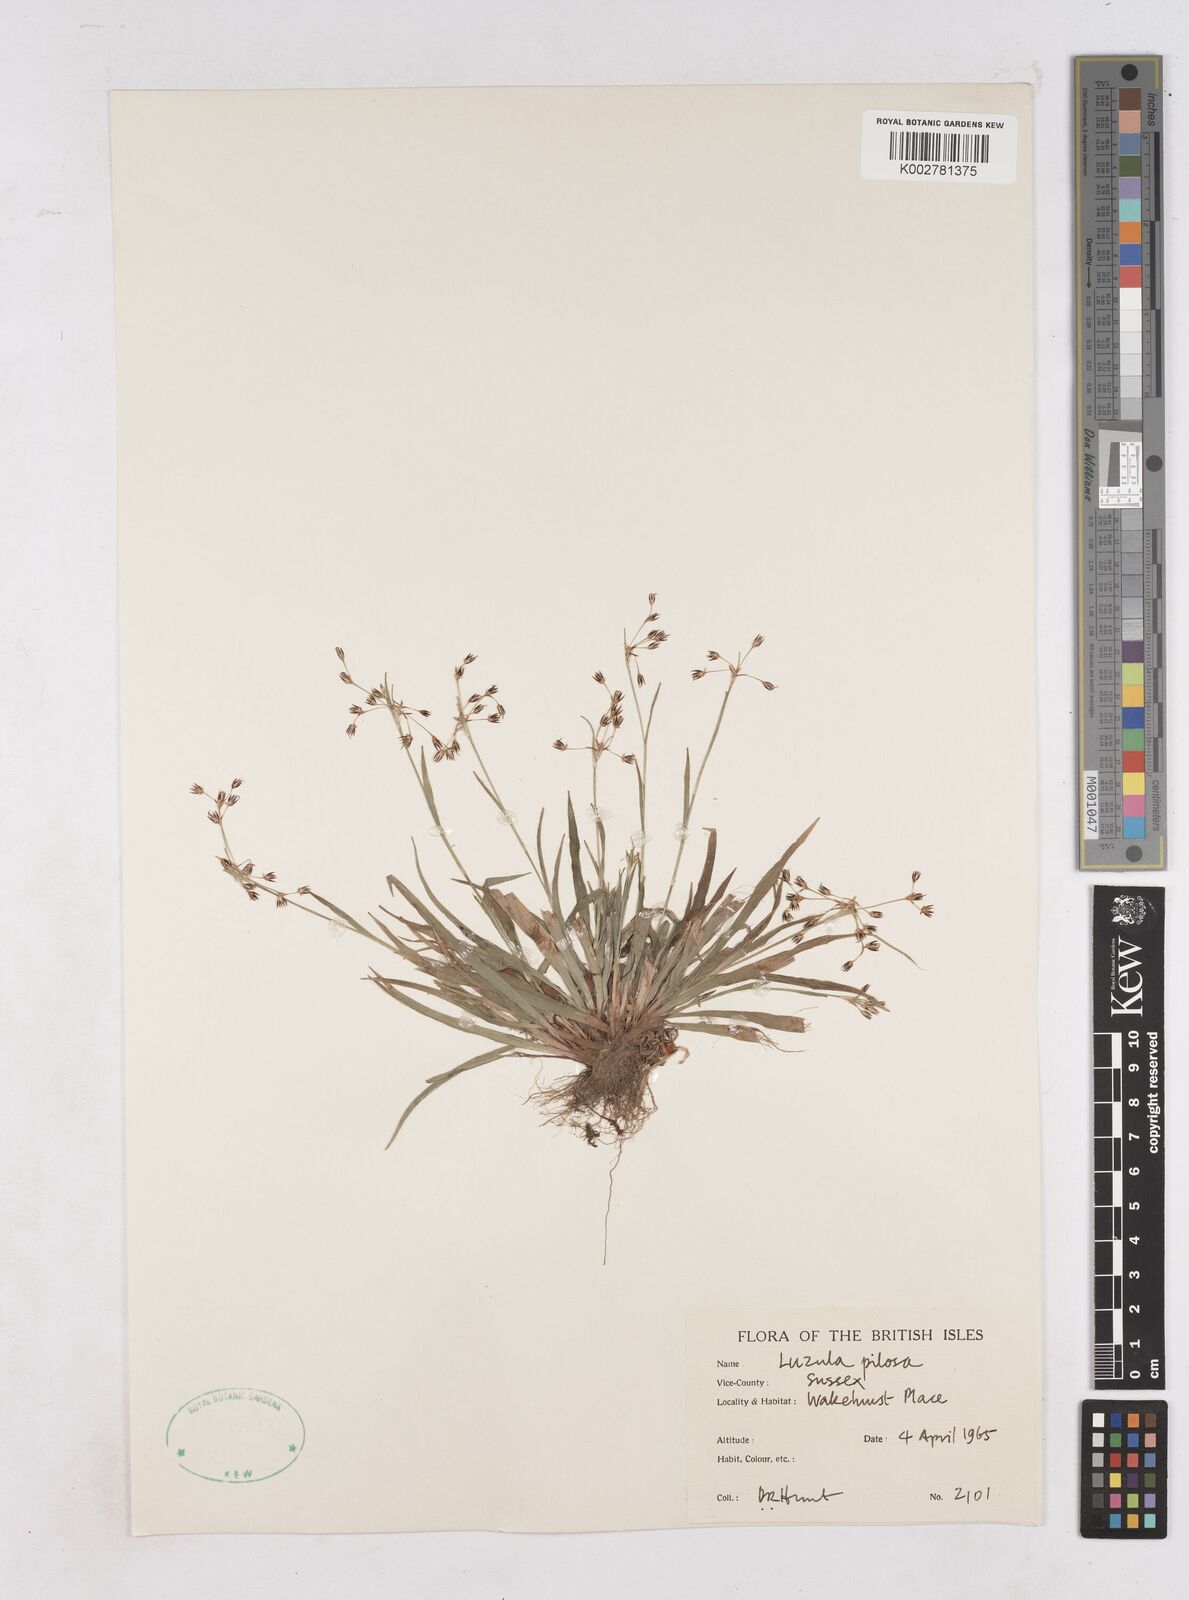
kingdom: Plantae
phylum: Tracheophyta
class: Liliopsida
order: Poales
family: Juncaceae
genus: Luzula
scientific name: Luzula pilosa
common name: Hairy wood-rush
